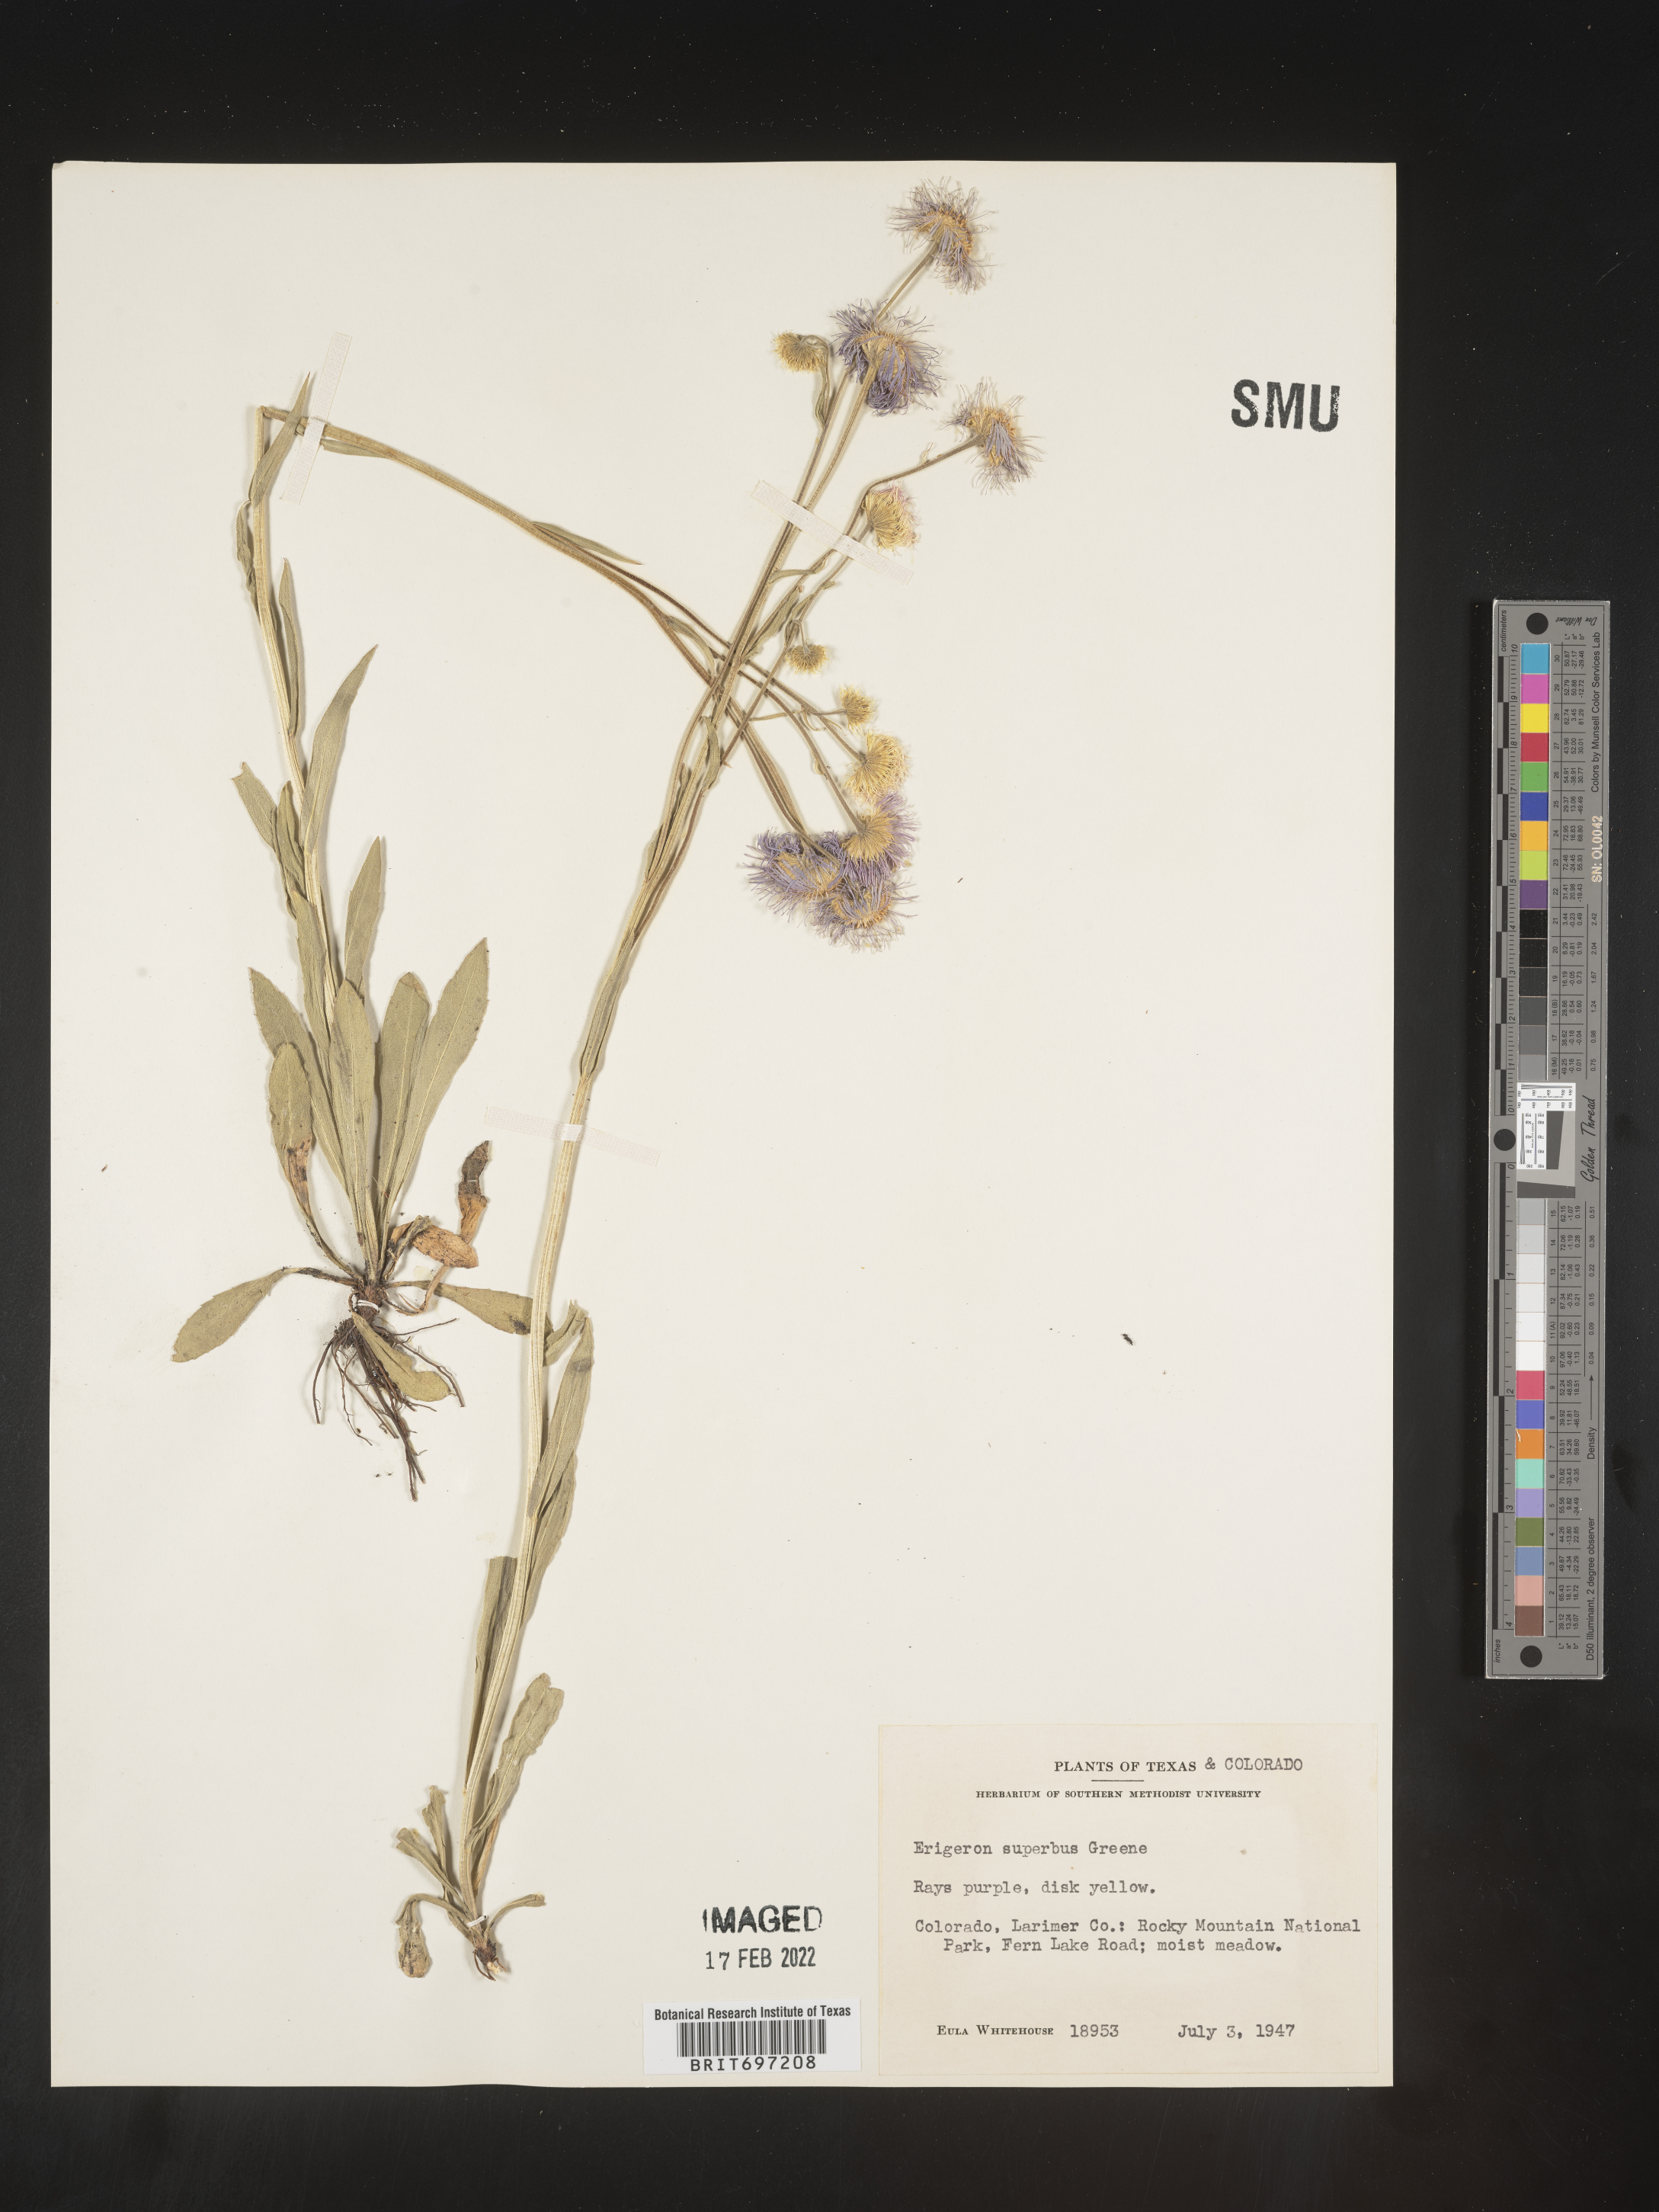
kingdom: Plantae
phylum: Tracheophyta
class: Magnoliopsida
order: Asterales
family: Asteraceae
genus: Erigeron
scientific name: Erigeron eximius
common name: Spruce-fir fleabane
